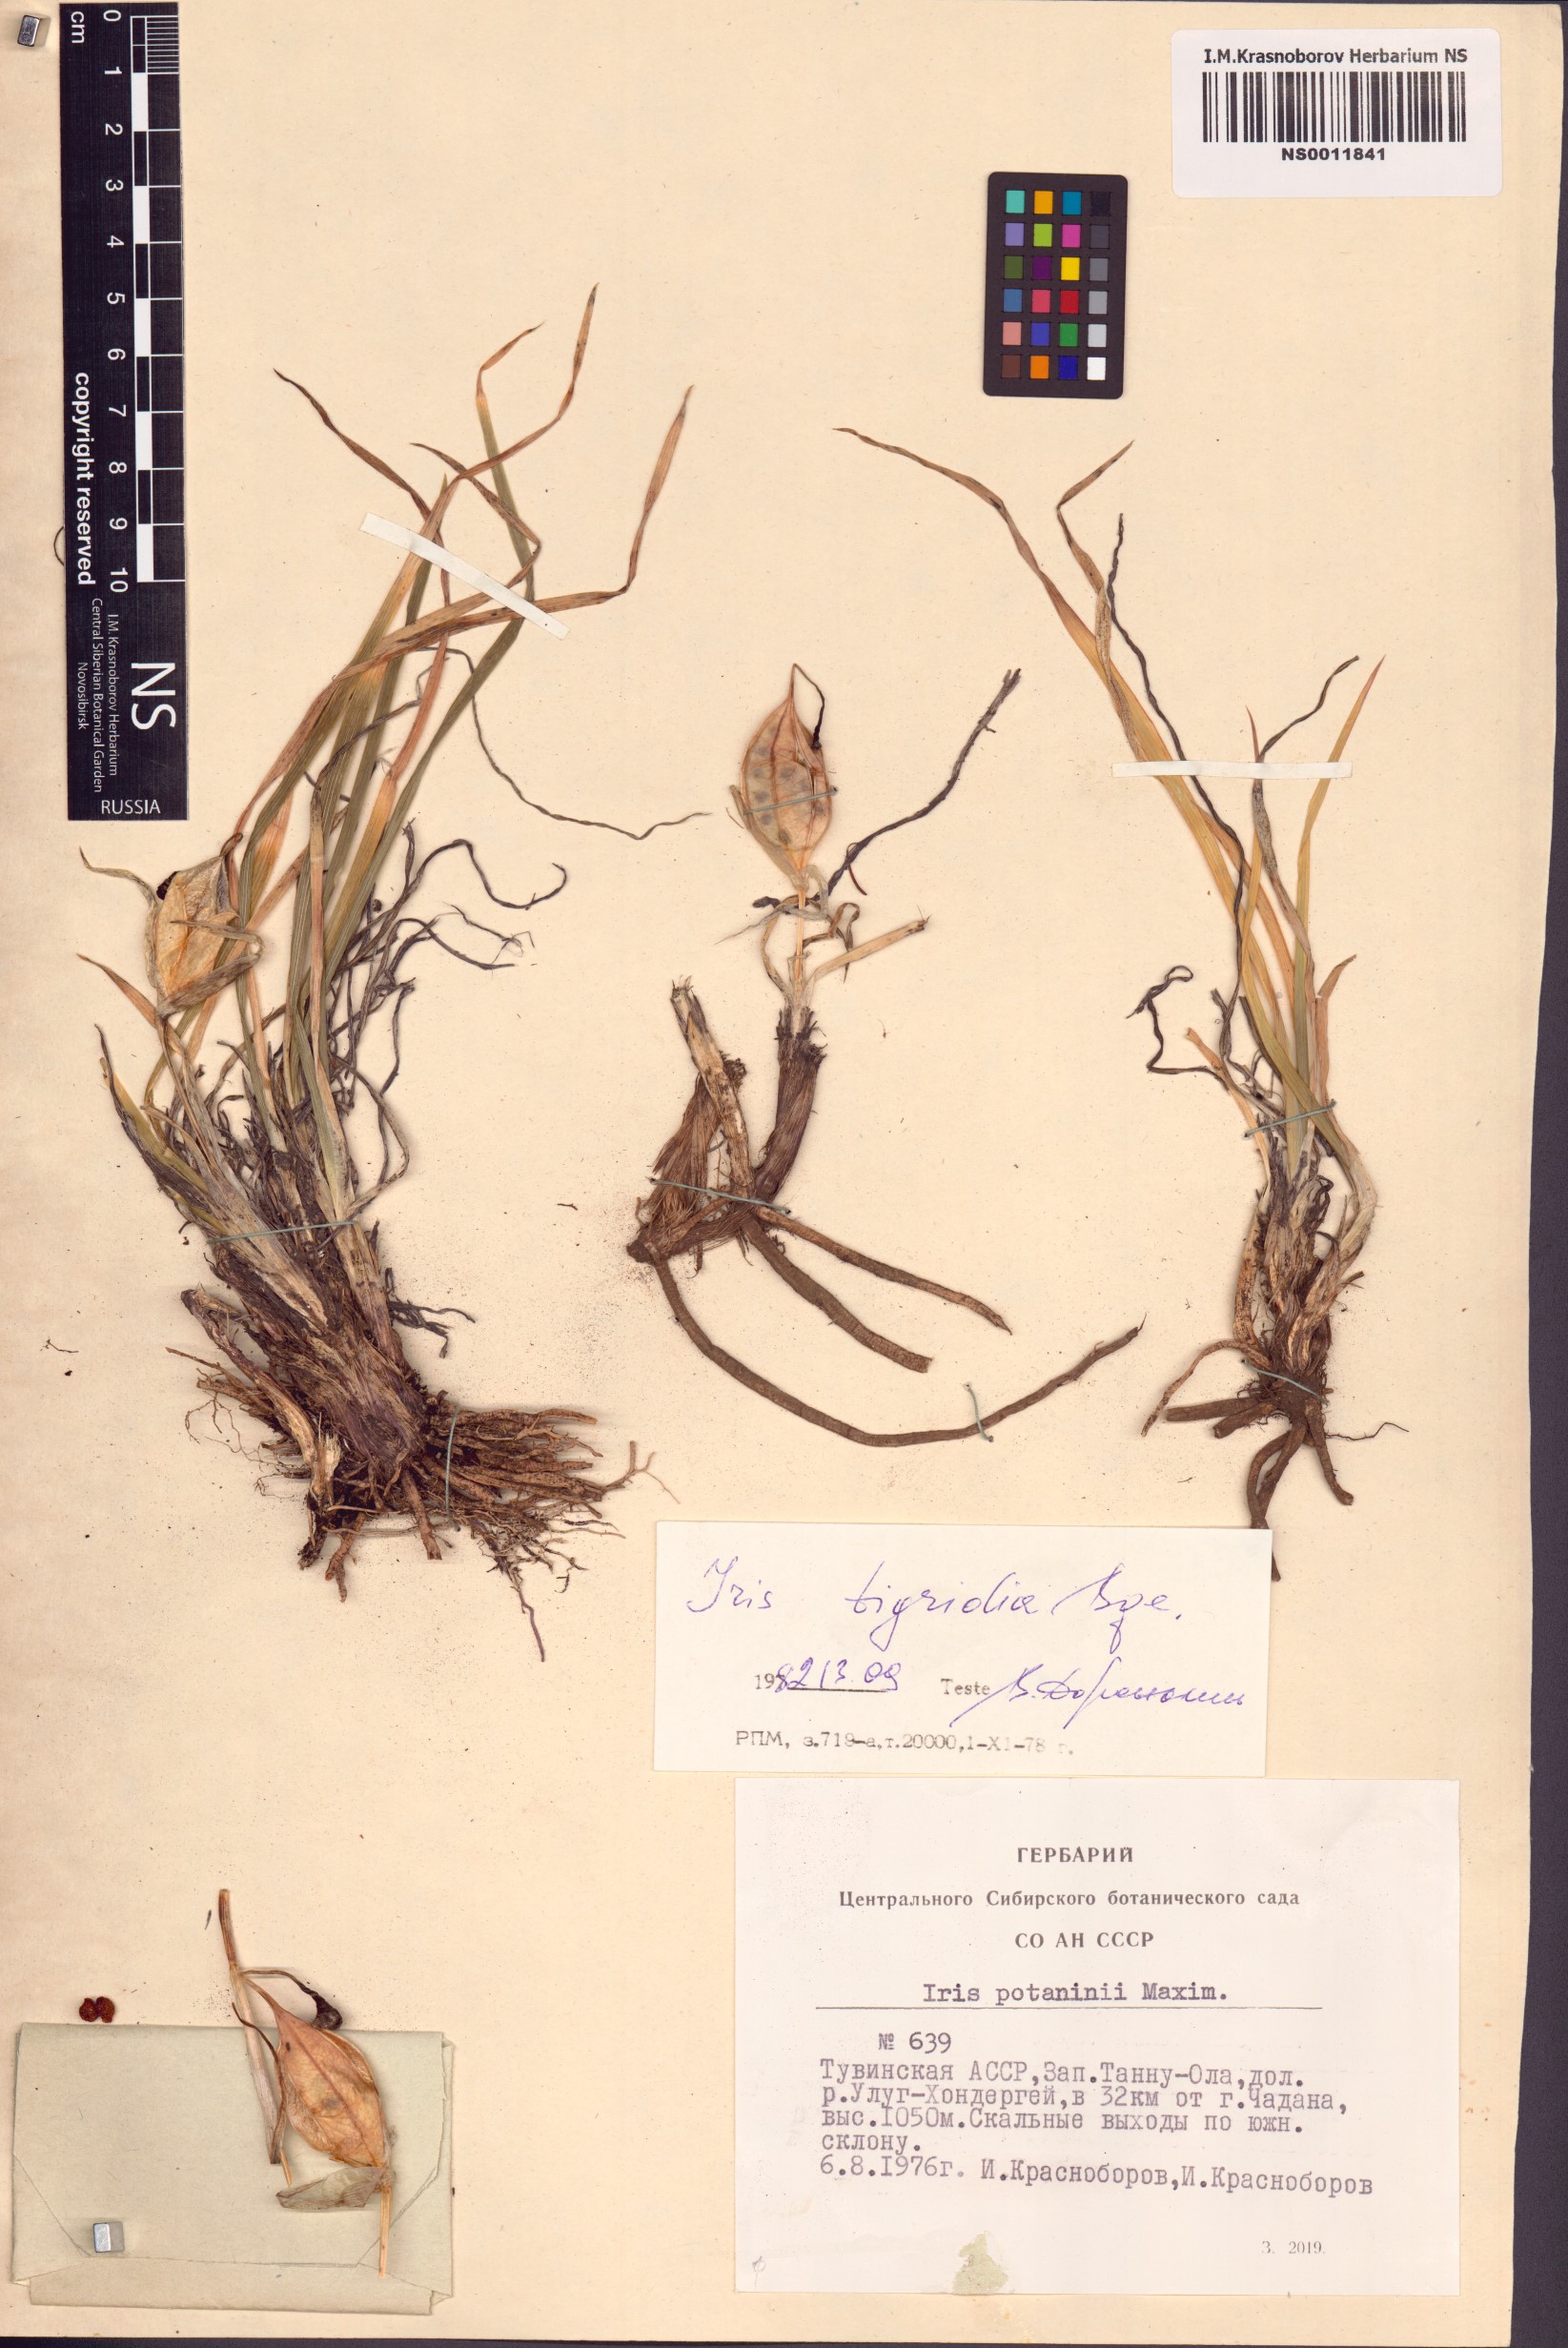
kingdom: Plantae
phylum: Tracheophyta
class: Liliopsida
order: Asparagales
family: Iridaceae
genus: Iris
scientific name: Iris tigridia
